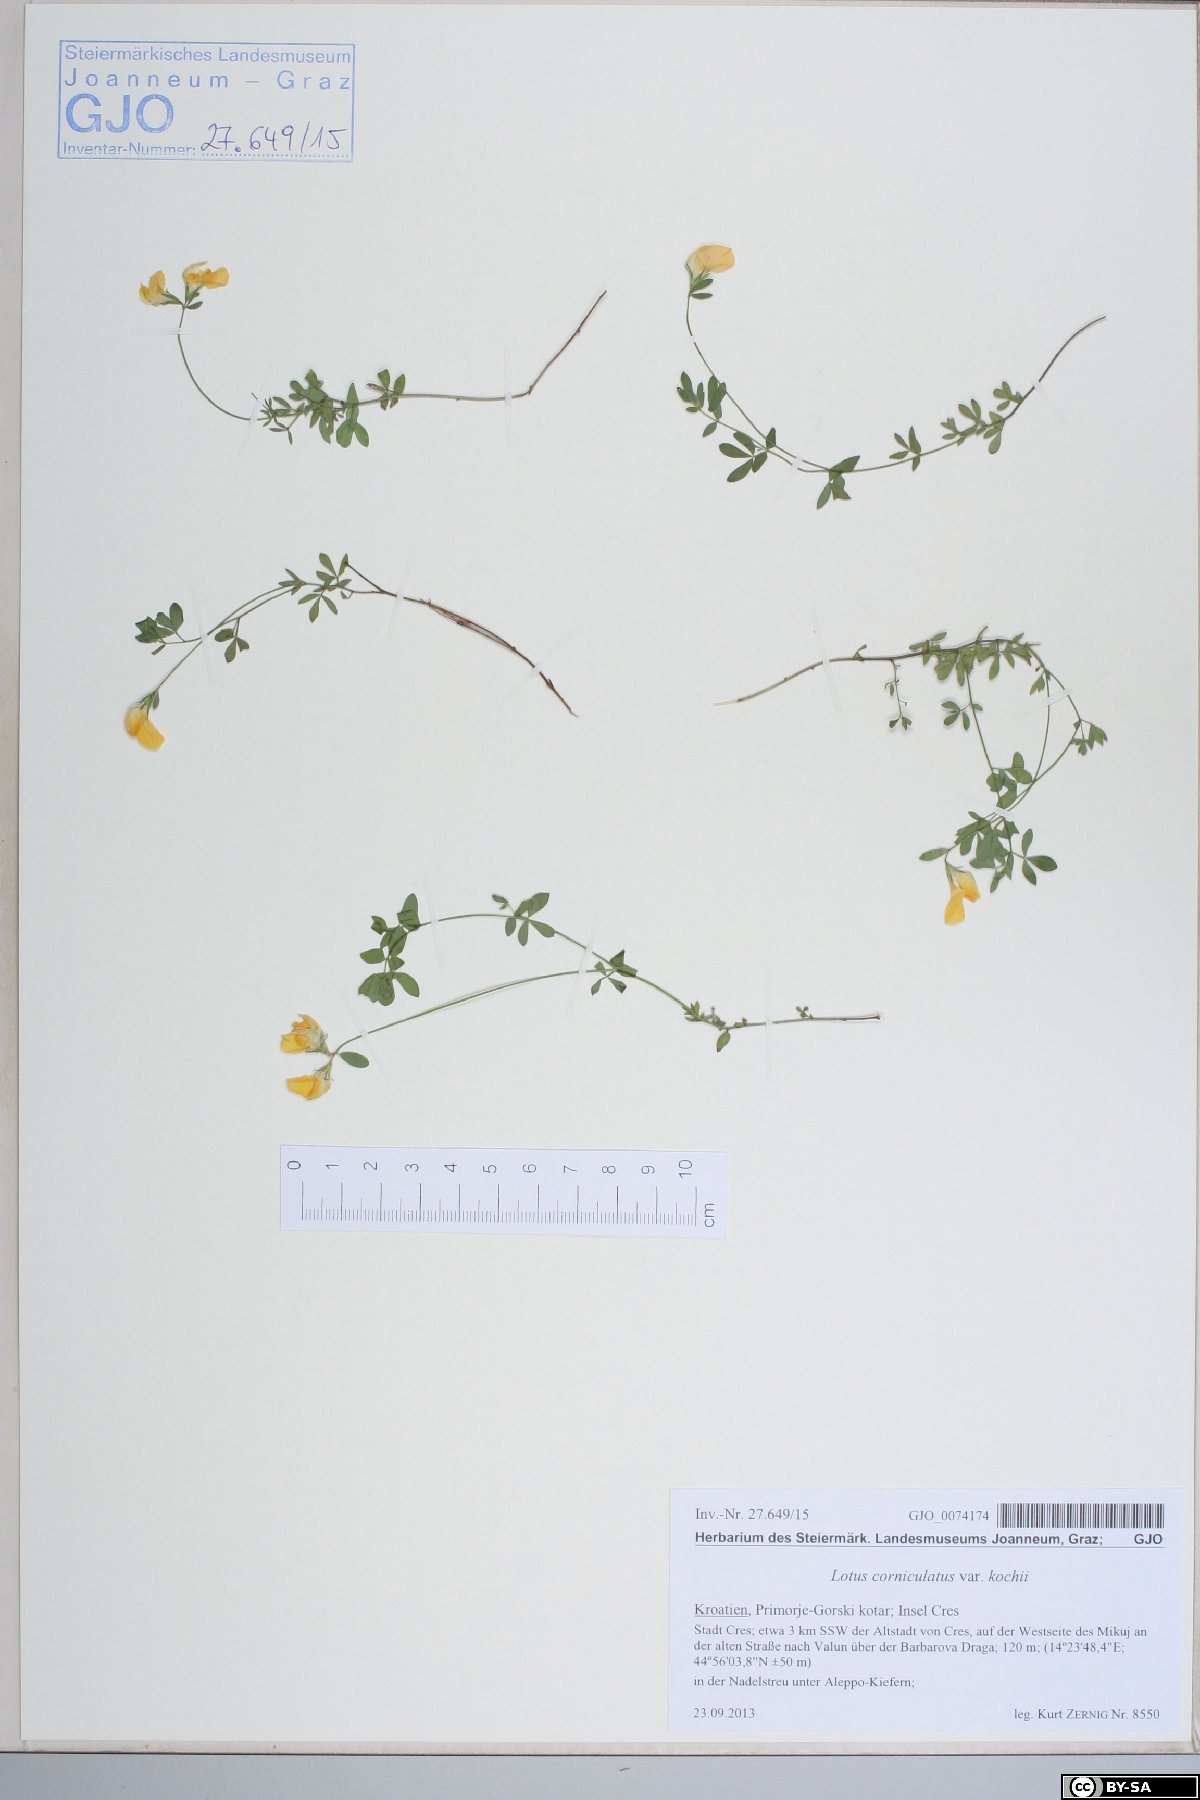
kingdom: Plantae
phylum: Tracheophyta
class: Magnoliopsida
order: Fabales
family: Fabaceae
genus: Lotus
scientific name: Lotus corniculatus
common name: Common bird's-foot-trefoil
